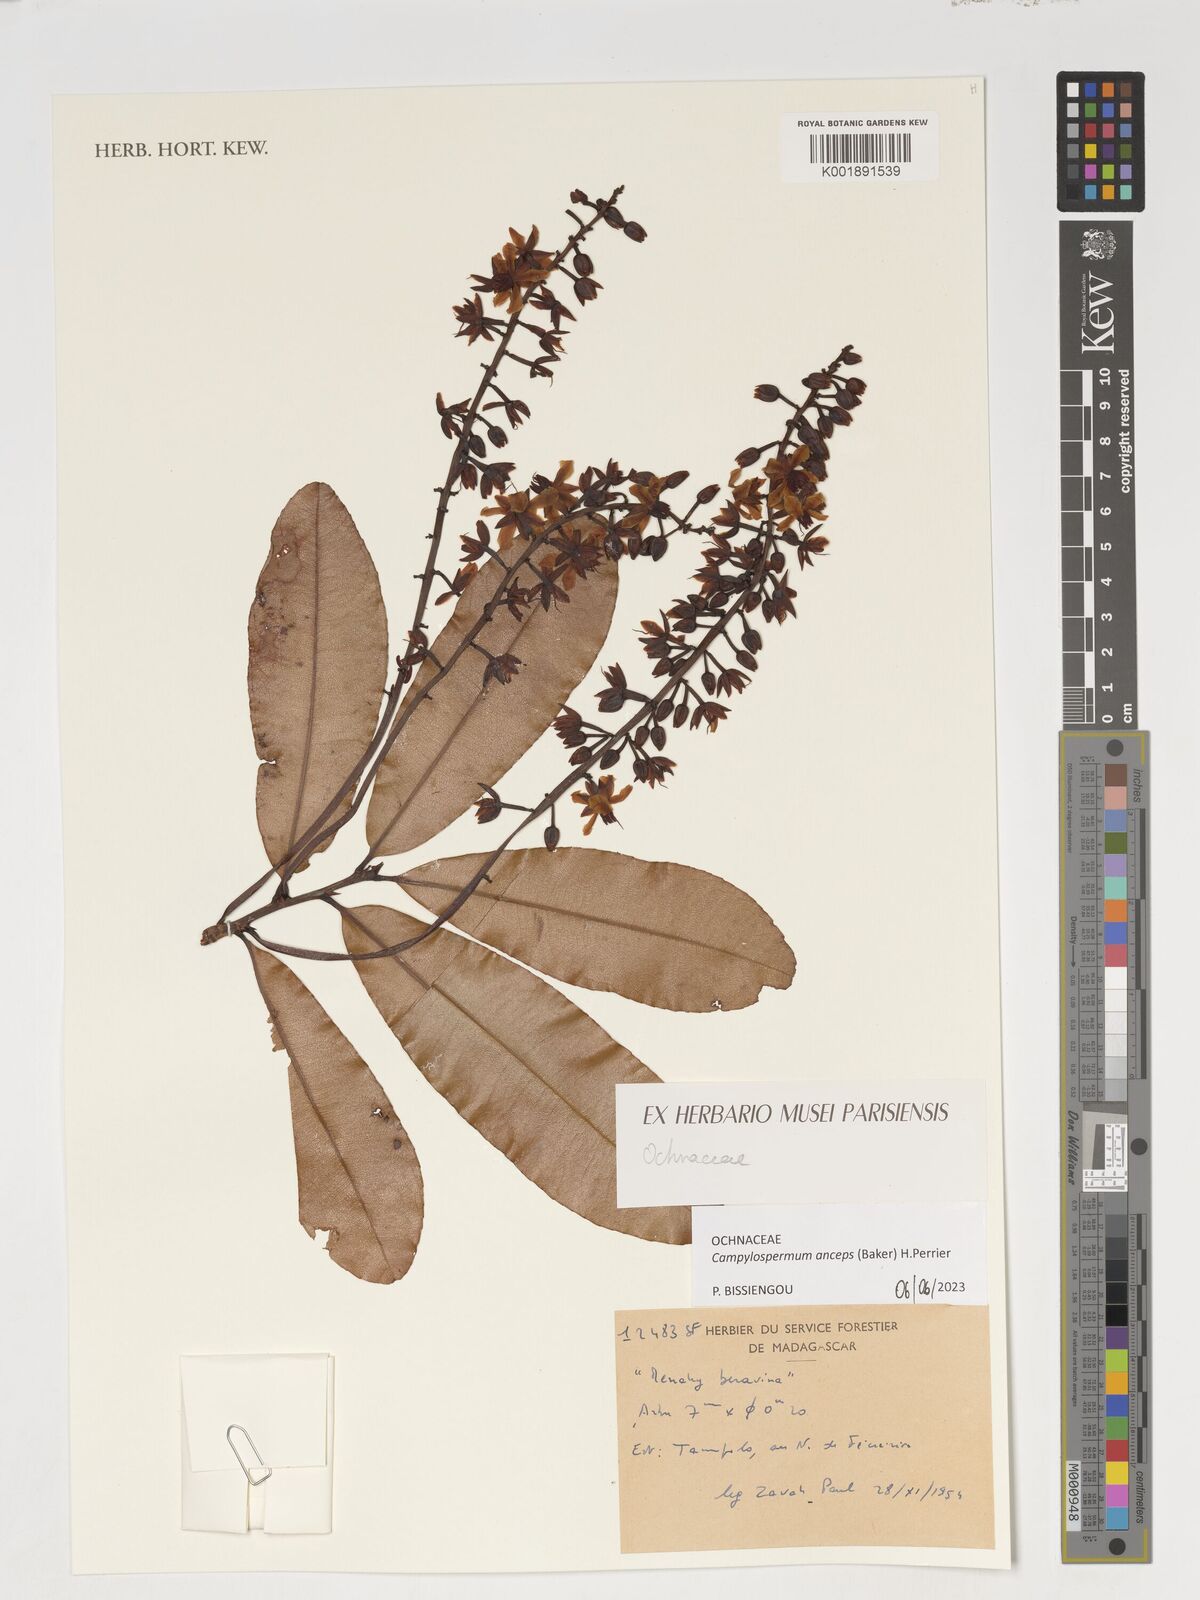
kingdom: Plantae
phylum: Tracheophyta
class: Magnoliopsida
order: Malpighiales
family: Ochnaceae
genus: Campylospermum
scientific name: Campylospermum anceps
